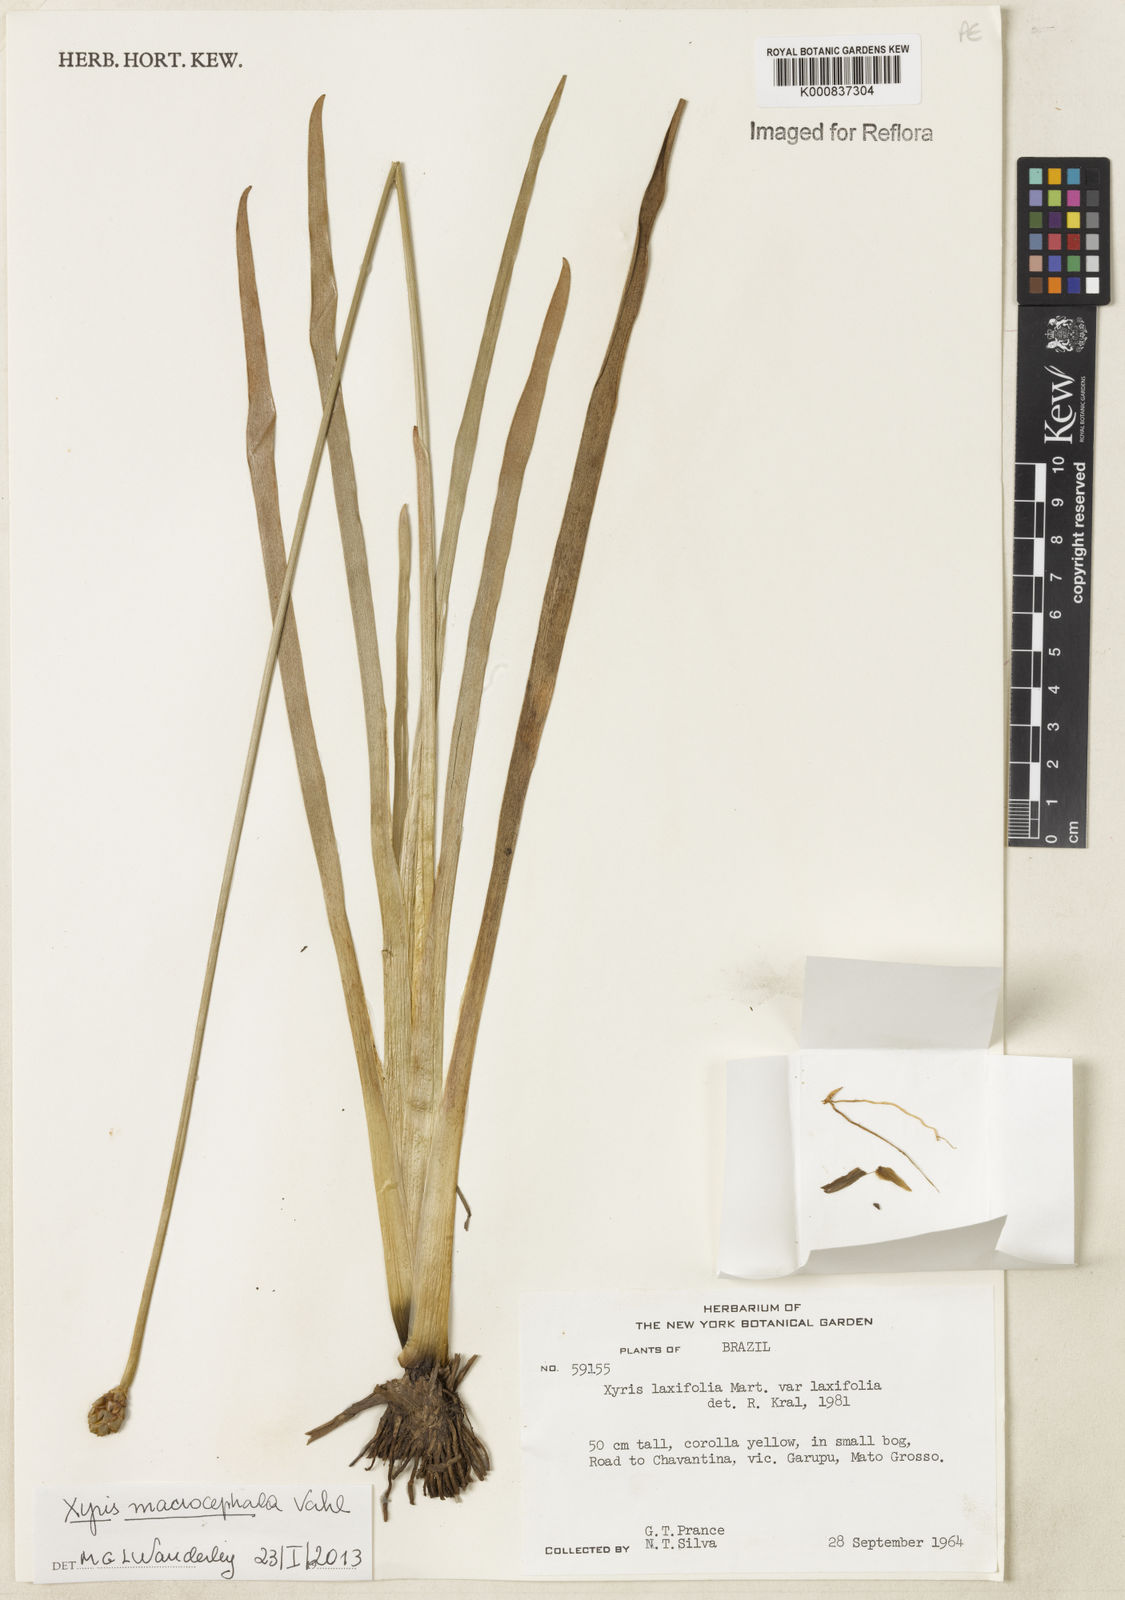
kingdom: Plantae
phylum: Tracheophyta
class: Liliopsida
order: Poales
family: Xyridaceae
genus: Xyris
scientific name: Xyris jupicai
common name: Richard's yelloweyed grass
